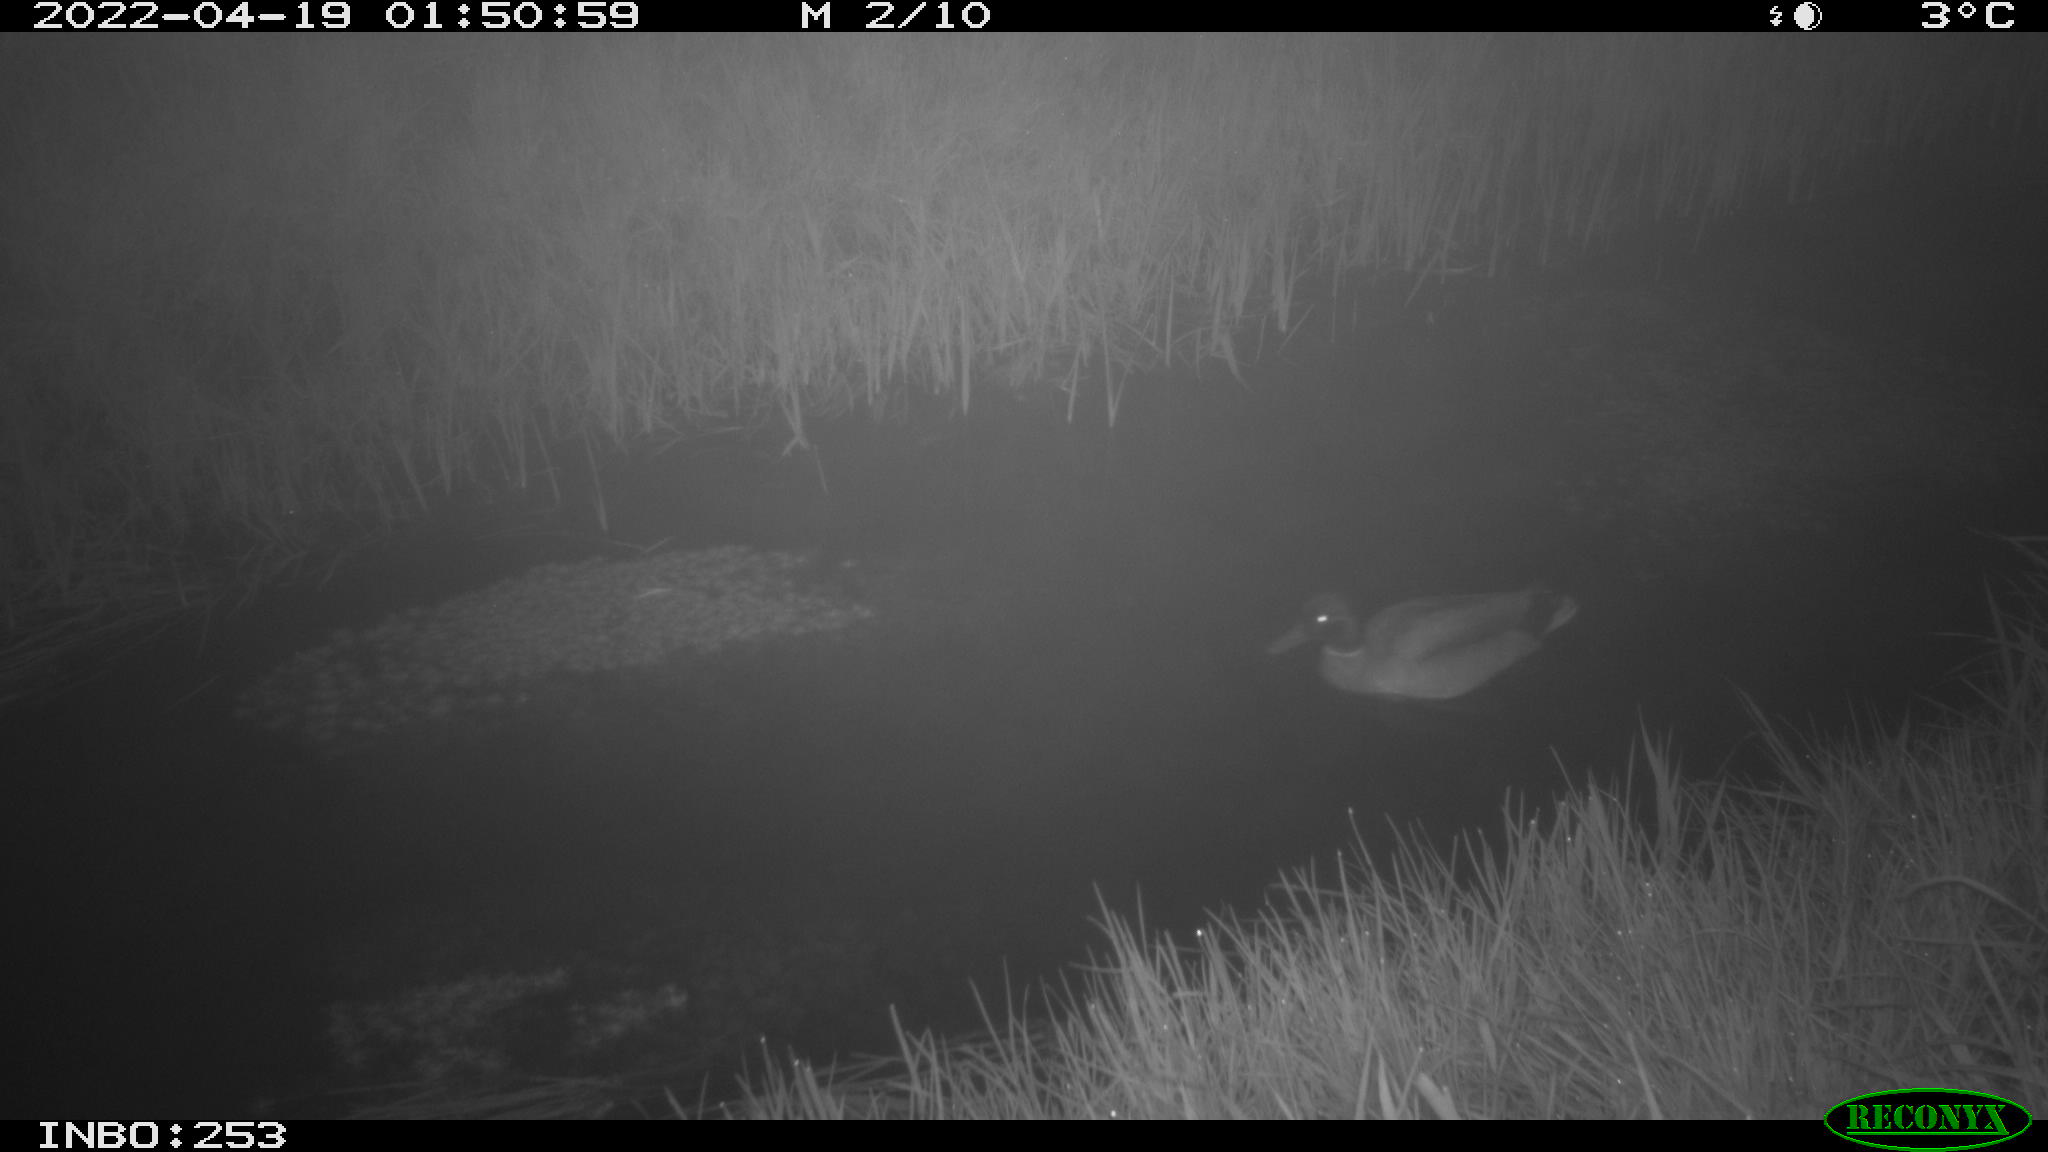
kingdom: Animalia
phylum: Chordata
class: Aves
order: Anseriformes
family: Anatidae
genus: Anas
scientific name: Anas platyrhynchos
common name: Mallard
